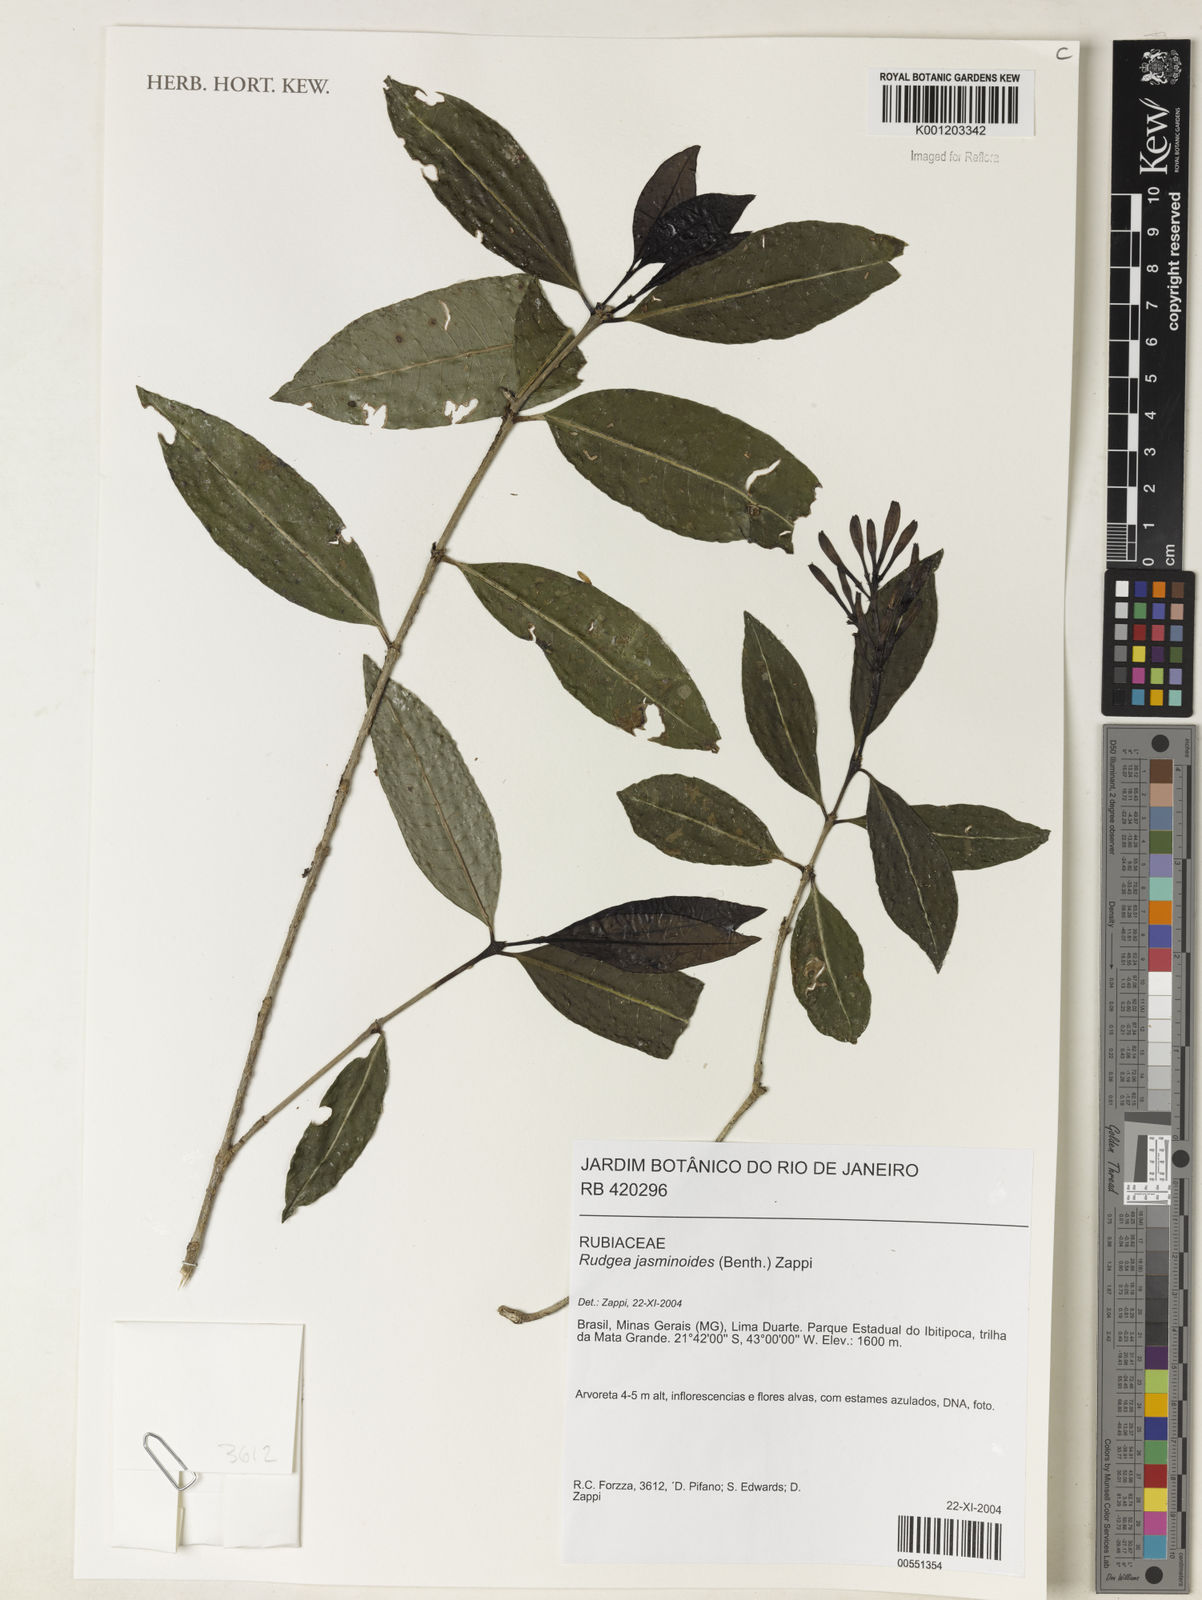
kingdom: Plantae
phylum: Tracheophyta
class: Magnoliopsida
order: Gentianales
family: Rubiaceae
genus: Rudgea
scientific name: Rudgea
